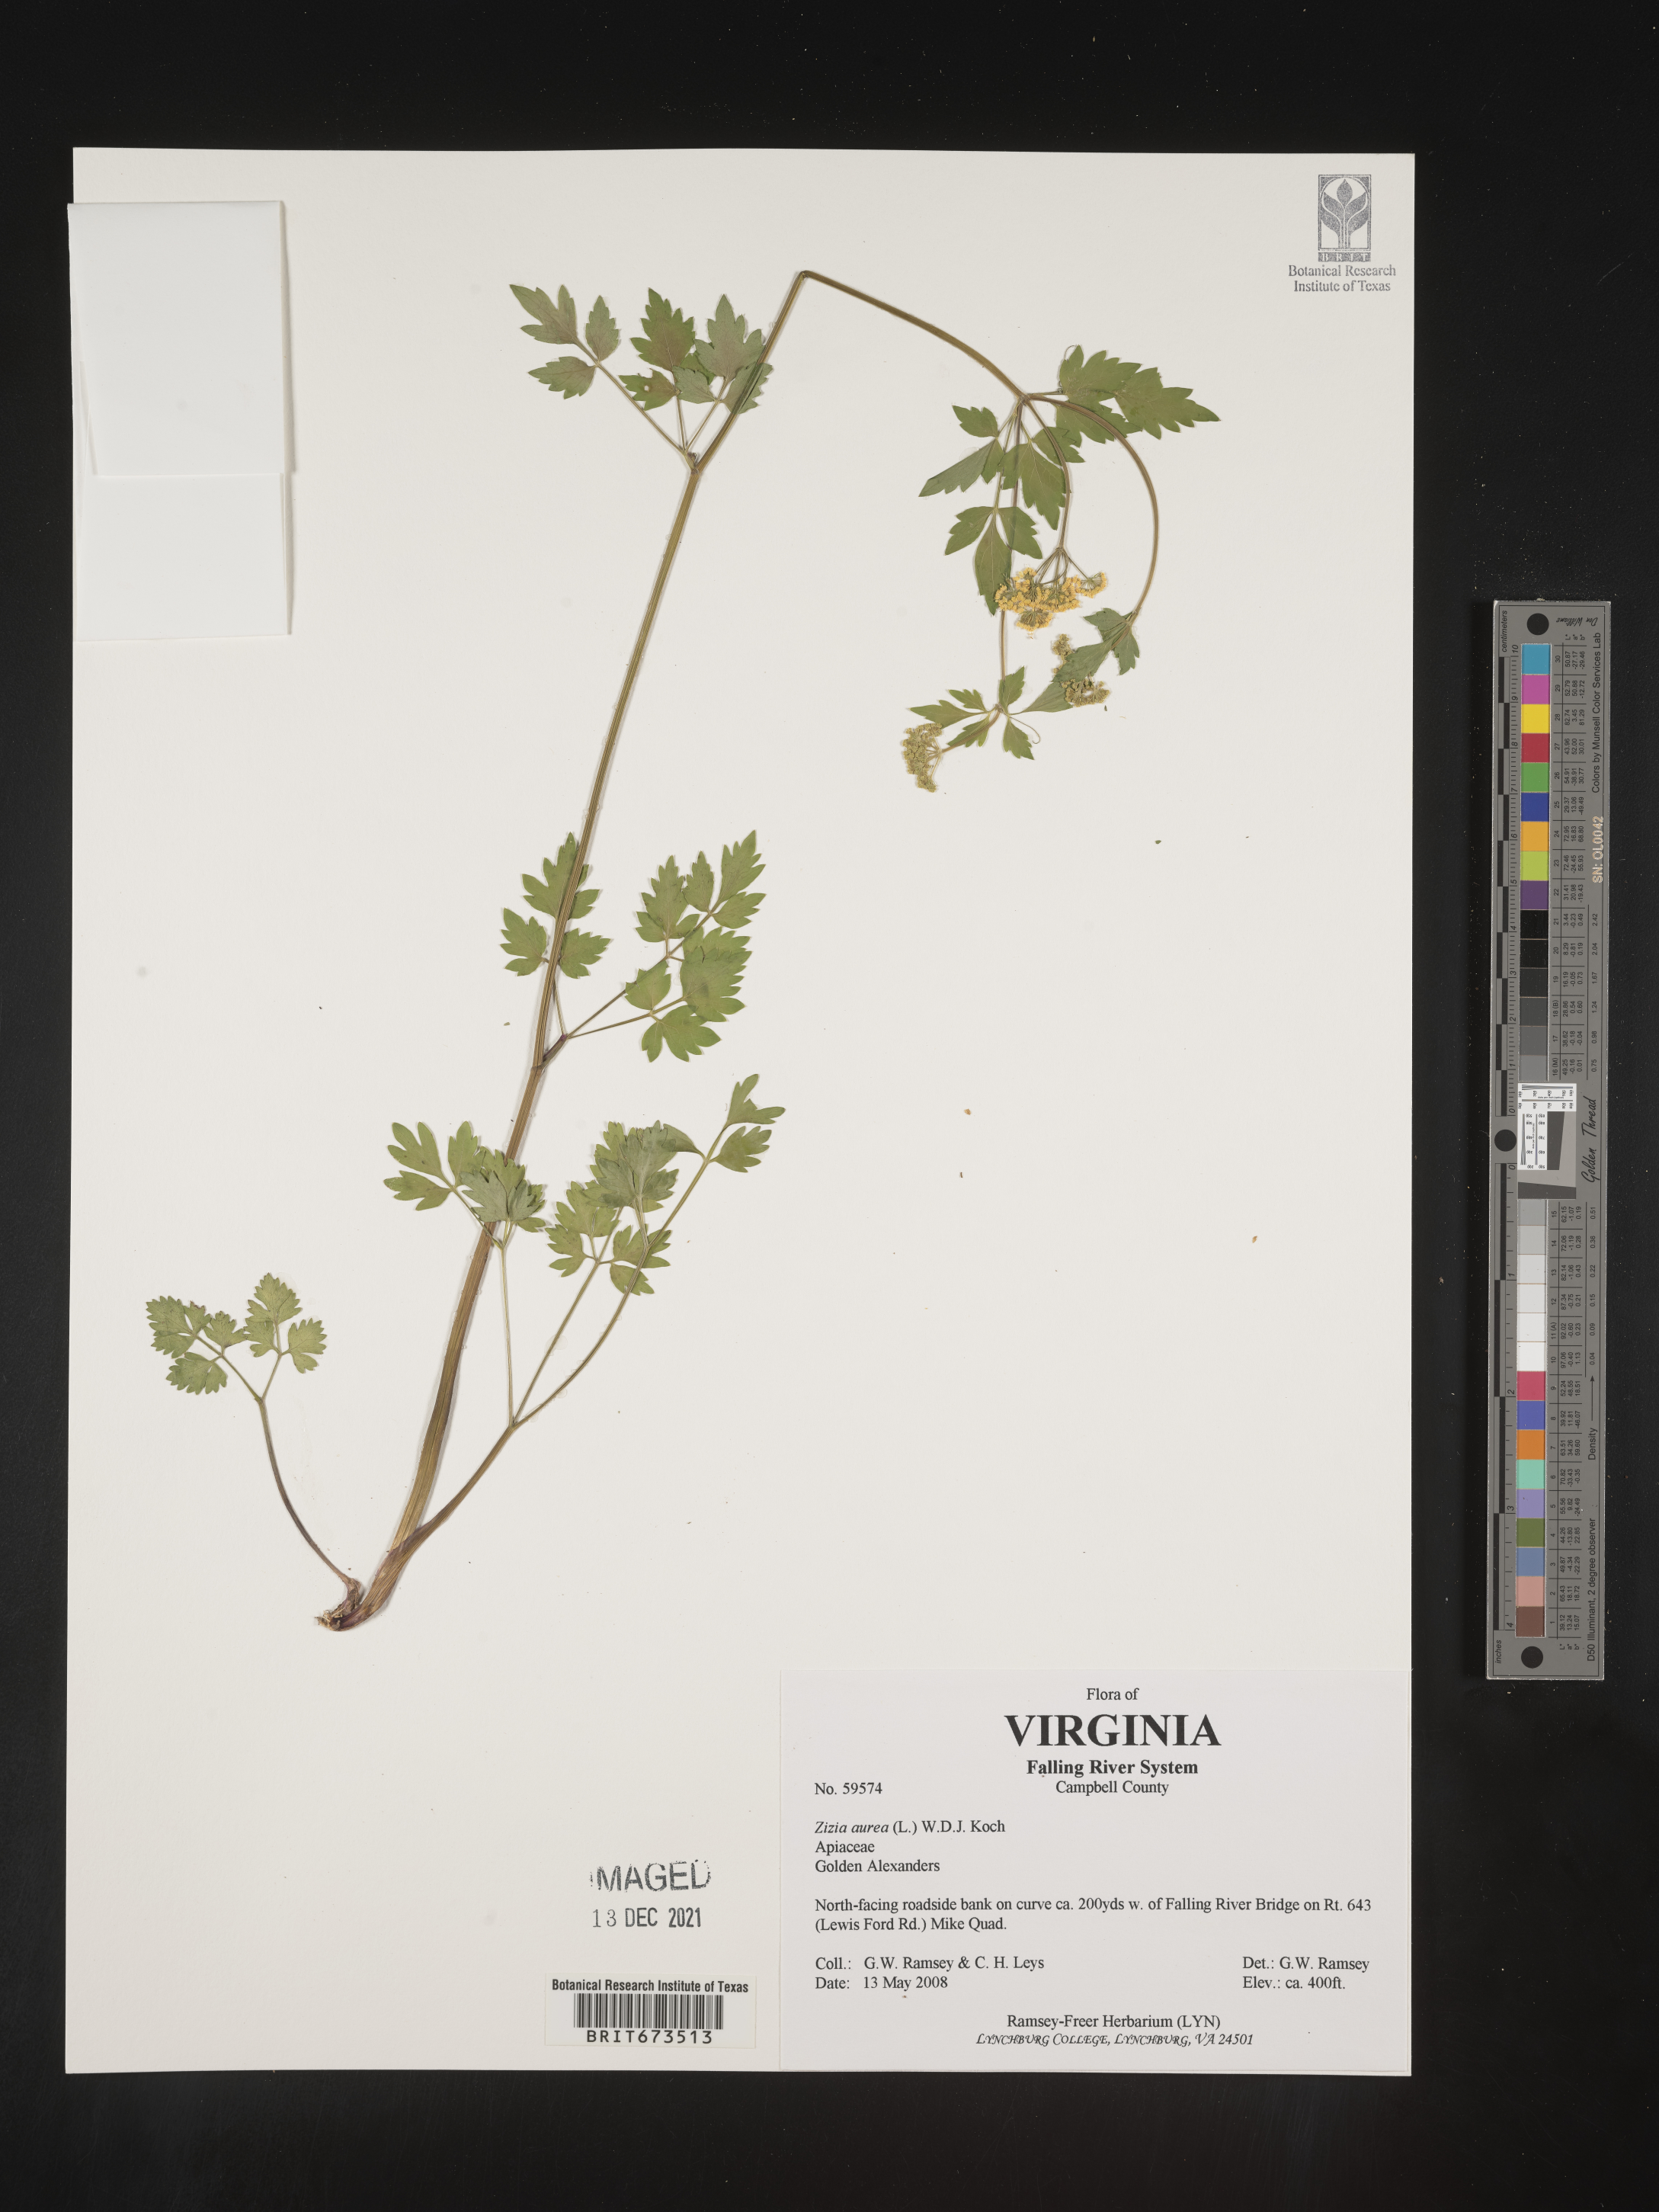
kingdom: Plantae
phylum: Tracheophyta
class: Magnoliopsida
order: Apiales
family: Apiaceae
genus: Zizia
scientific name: Zizia aurea
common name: Golden alexanders
